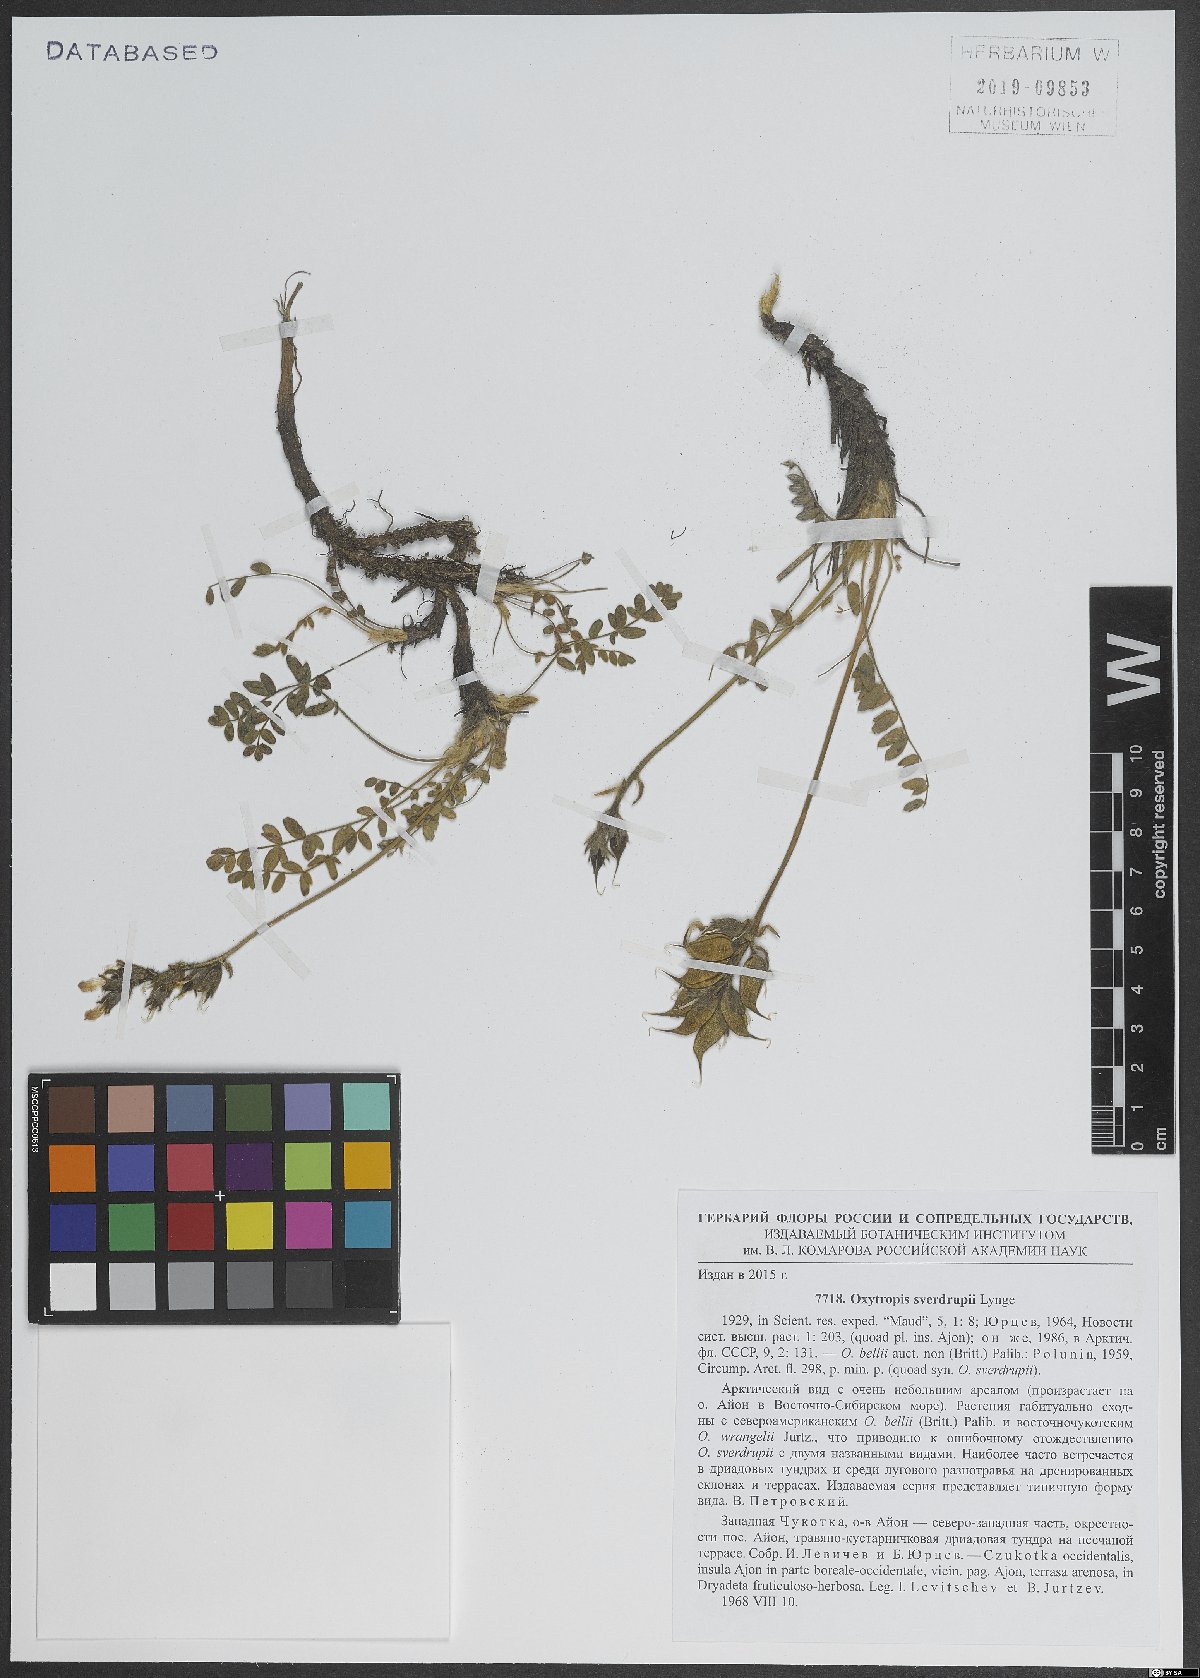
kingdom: Plantae
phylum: Tracheophyta
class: Magnoliopsida
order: Fabales
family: Fabaceae
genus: Oxytropis
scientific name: Oxytropis sverdrupii
